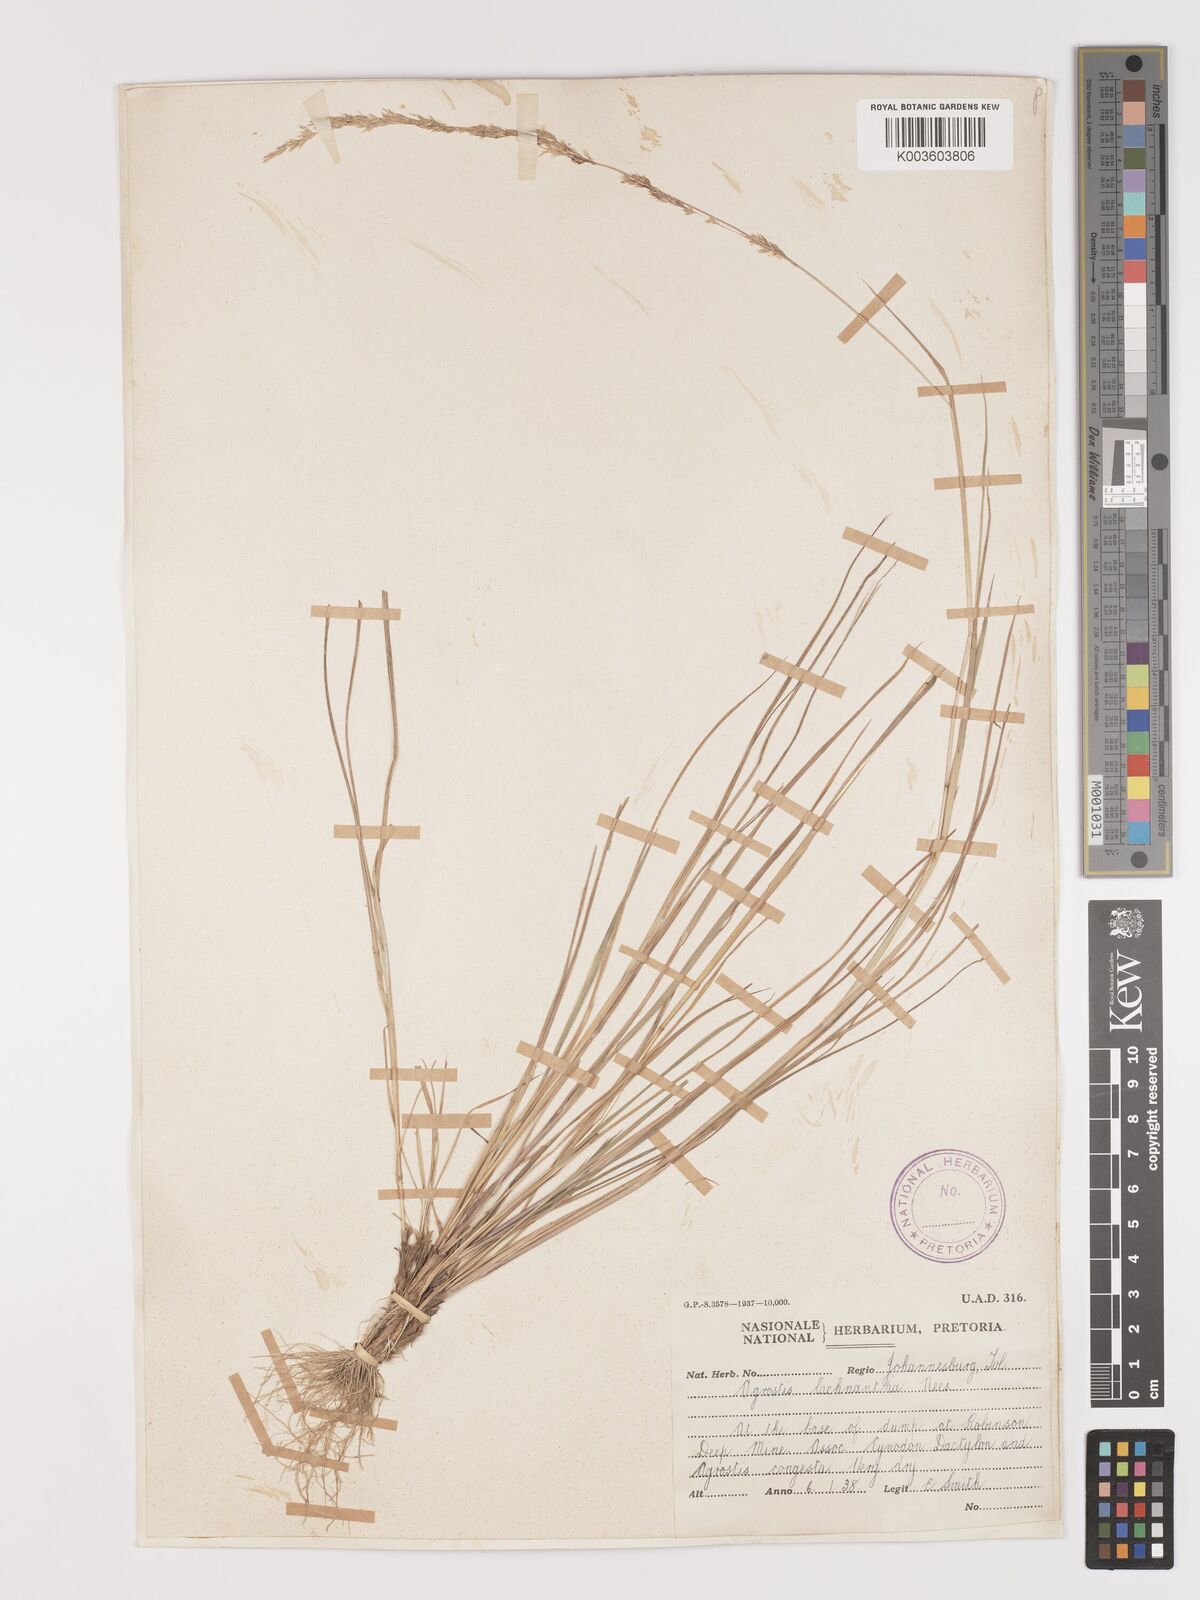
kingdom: Plantae
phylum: Tracheophyta
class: Liliopsida
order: Poales
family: Poaceae
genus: Lachnagrostis
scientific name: Lachnagrostis lachnantha
